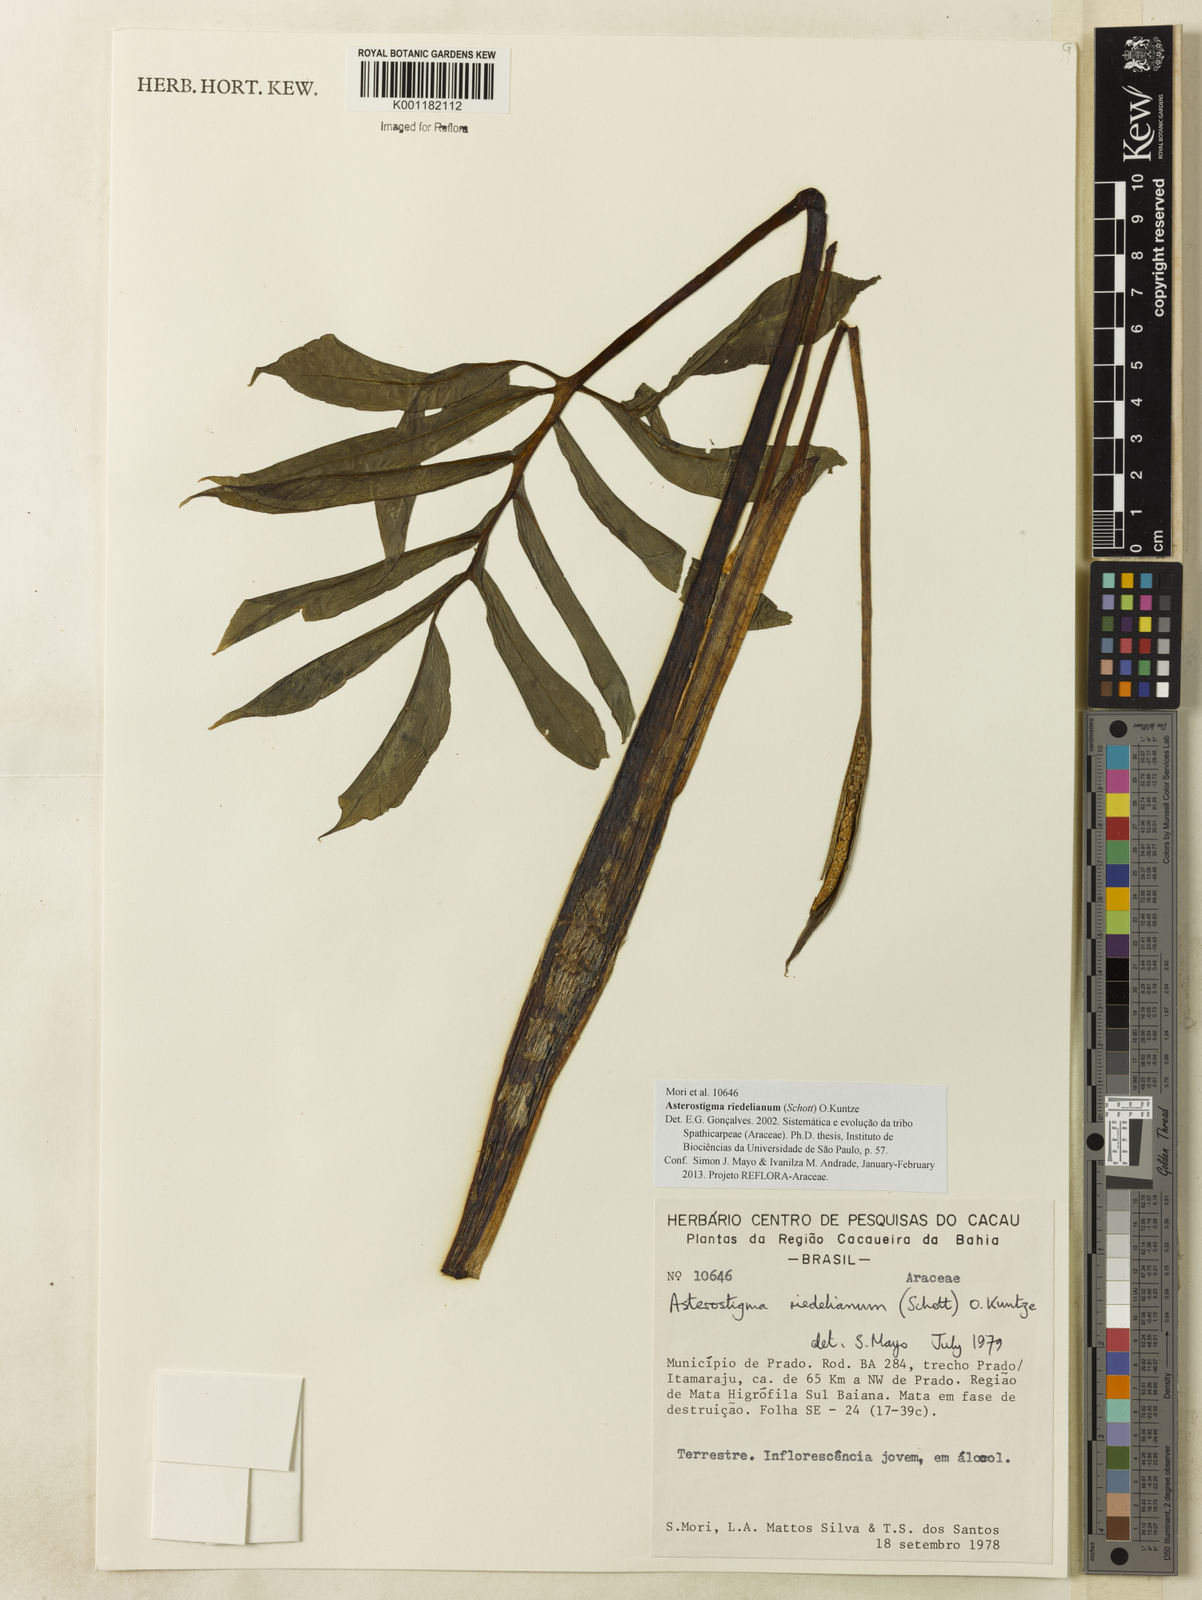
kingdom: Plantae
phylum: Tracheophyta
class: Liliopsida
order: Alismatales
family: Araceae
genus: Philodendron
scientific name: Philodendron ornatum
